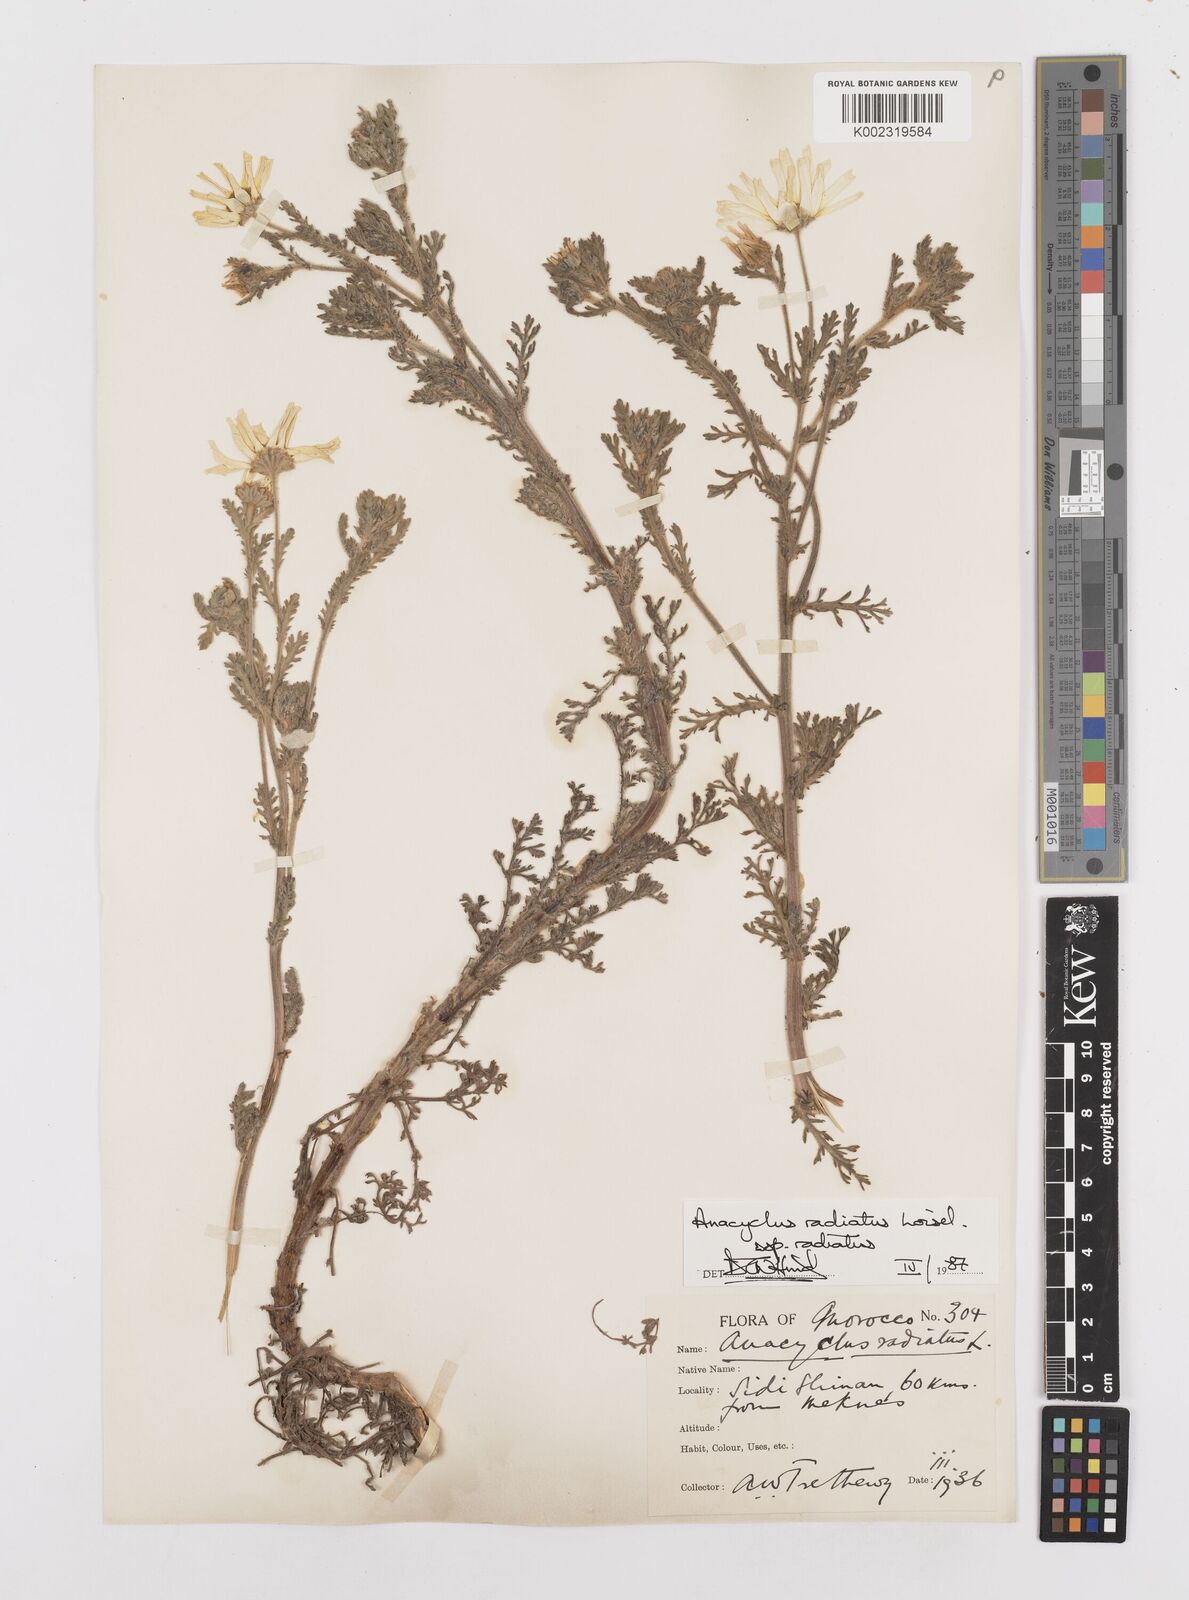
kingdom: Plantae
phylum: Tracheophyta
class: Magnoliopsida
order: Asterales
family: Asteraceae
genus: Anacyclus
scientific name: Anacyclus radiatus
